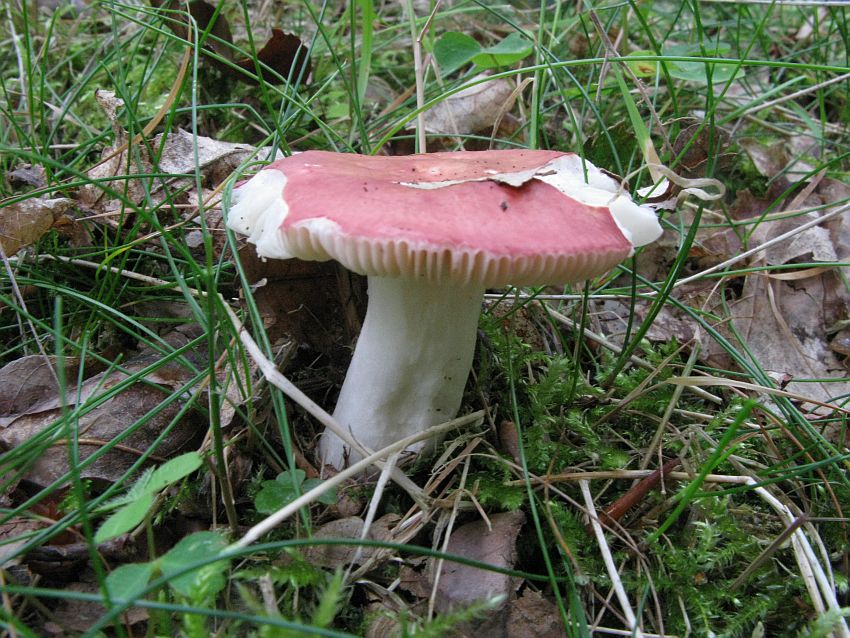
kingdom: Fungi
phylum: Basidiomycota
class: Agaricomycetes
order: Russulales
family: Russulaceae
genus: Russula
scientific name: Russula velenovskyi
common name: orangerød skørhat
